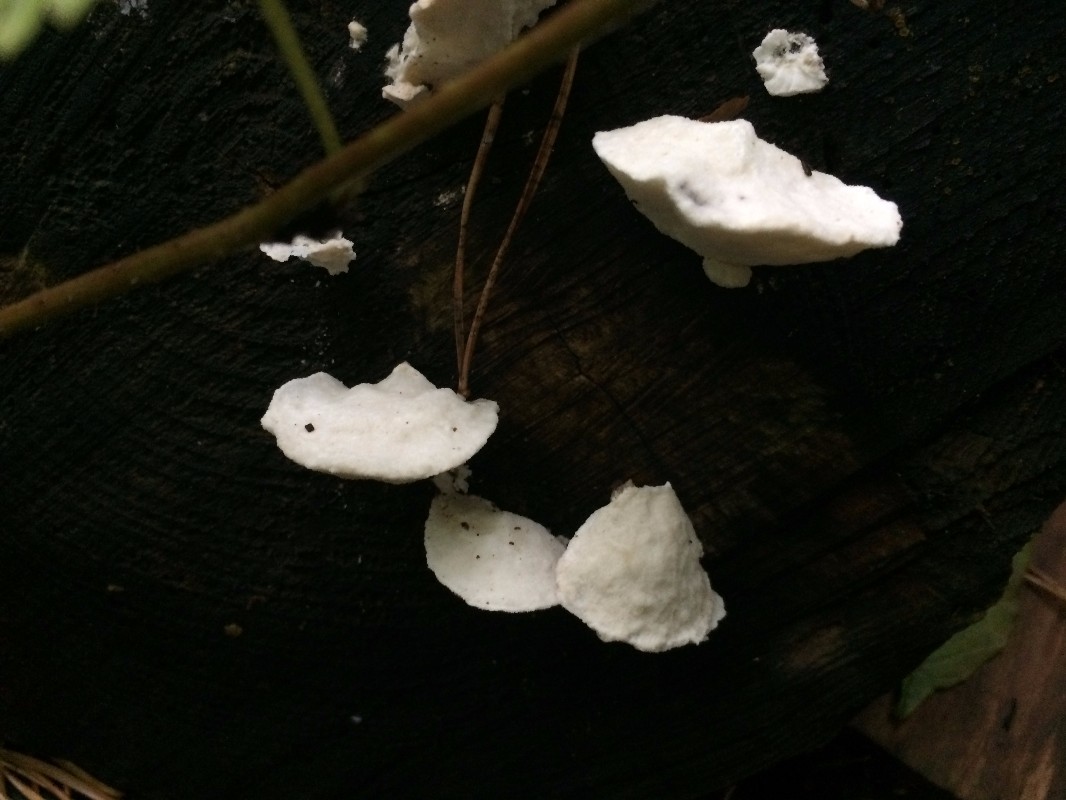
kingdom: Fungi
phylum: Basidiomycota
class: Agaricomycetes
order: Polyporales
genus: Amaropostia
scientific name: Amaropostia stiptica
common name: bitter kødporesvamp
